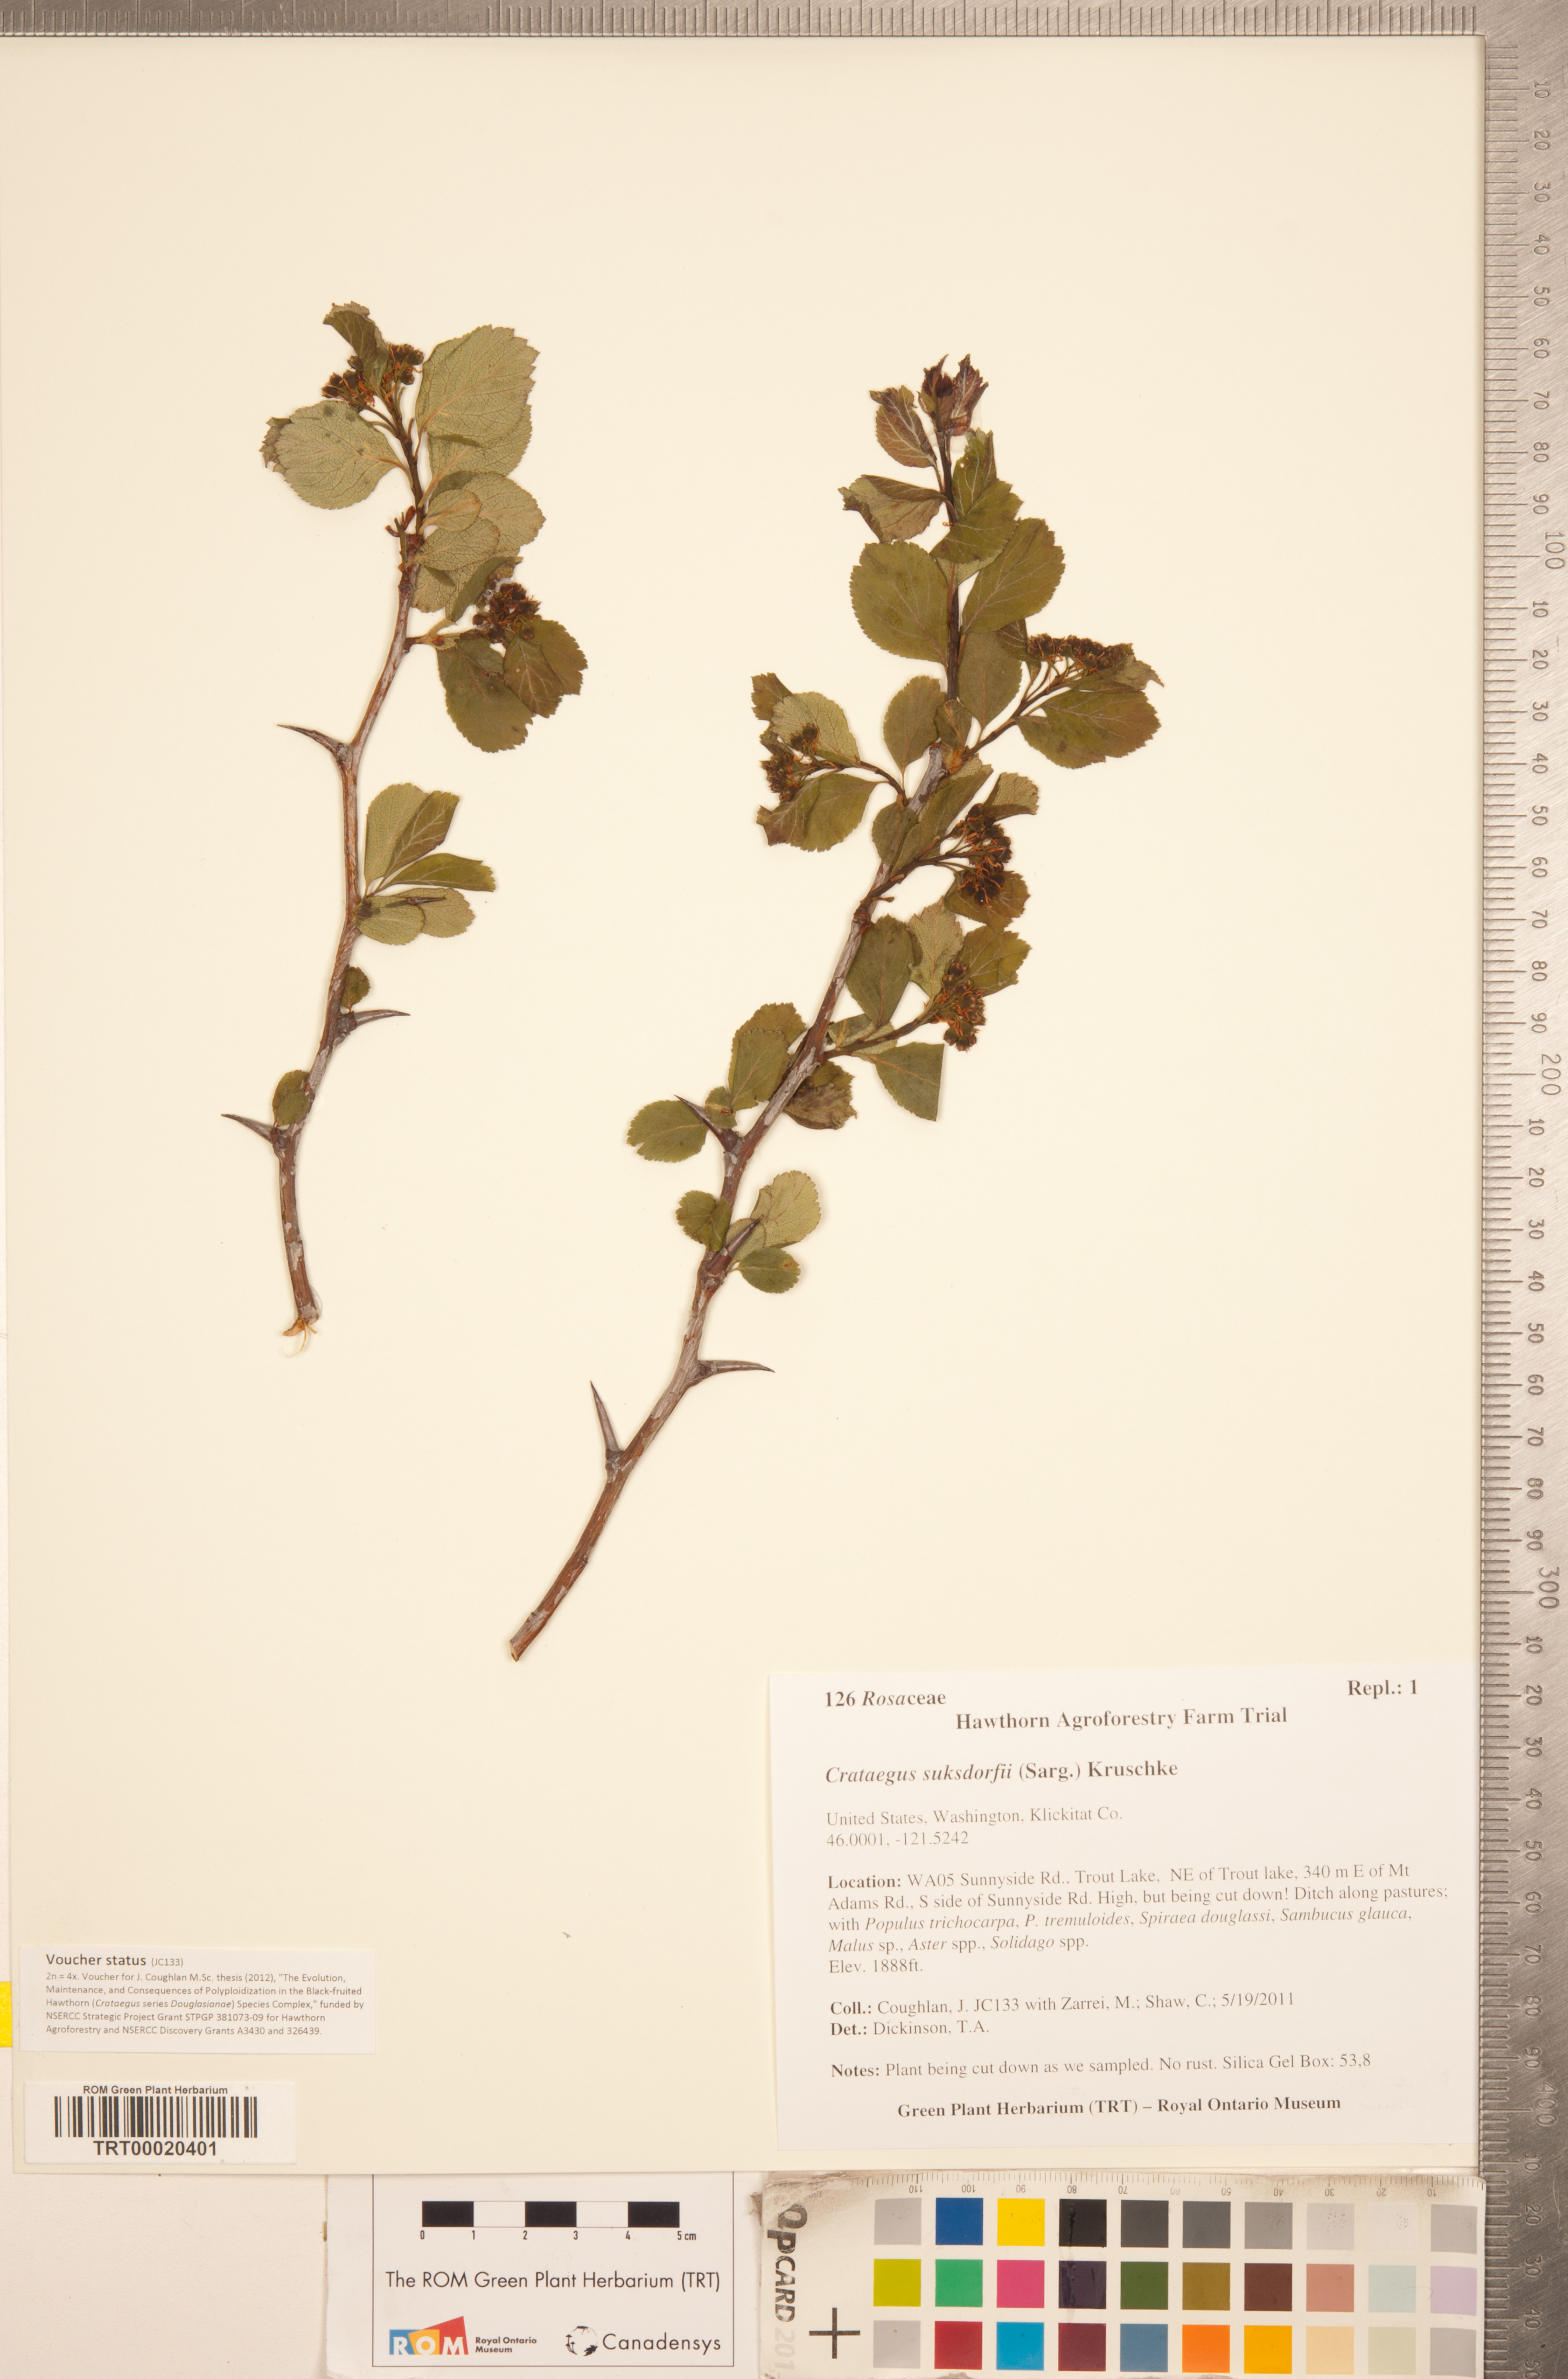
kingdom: Plantae
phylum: Tracheophyta
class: Magnoliopsida
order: Rosales
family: Rosaceae
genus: Crataegus
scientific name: Crataegus gaylussacia
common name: Huckleberry hawthorn
